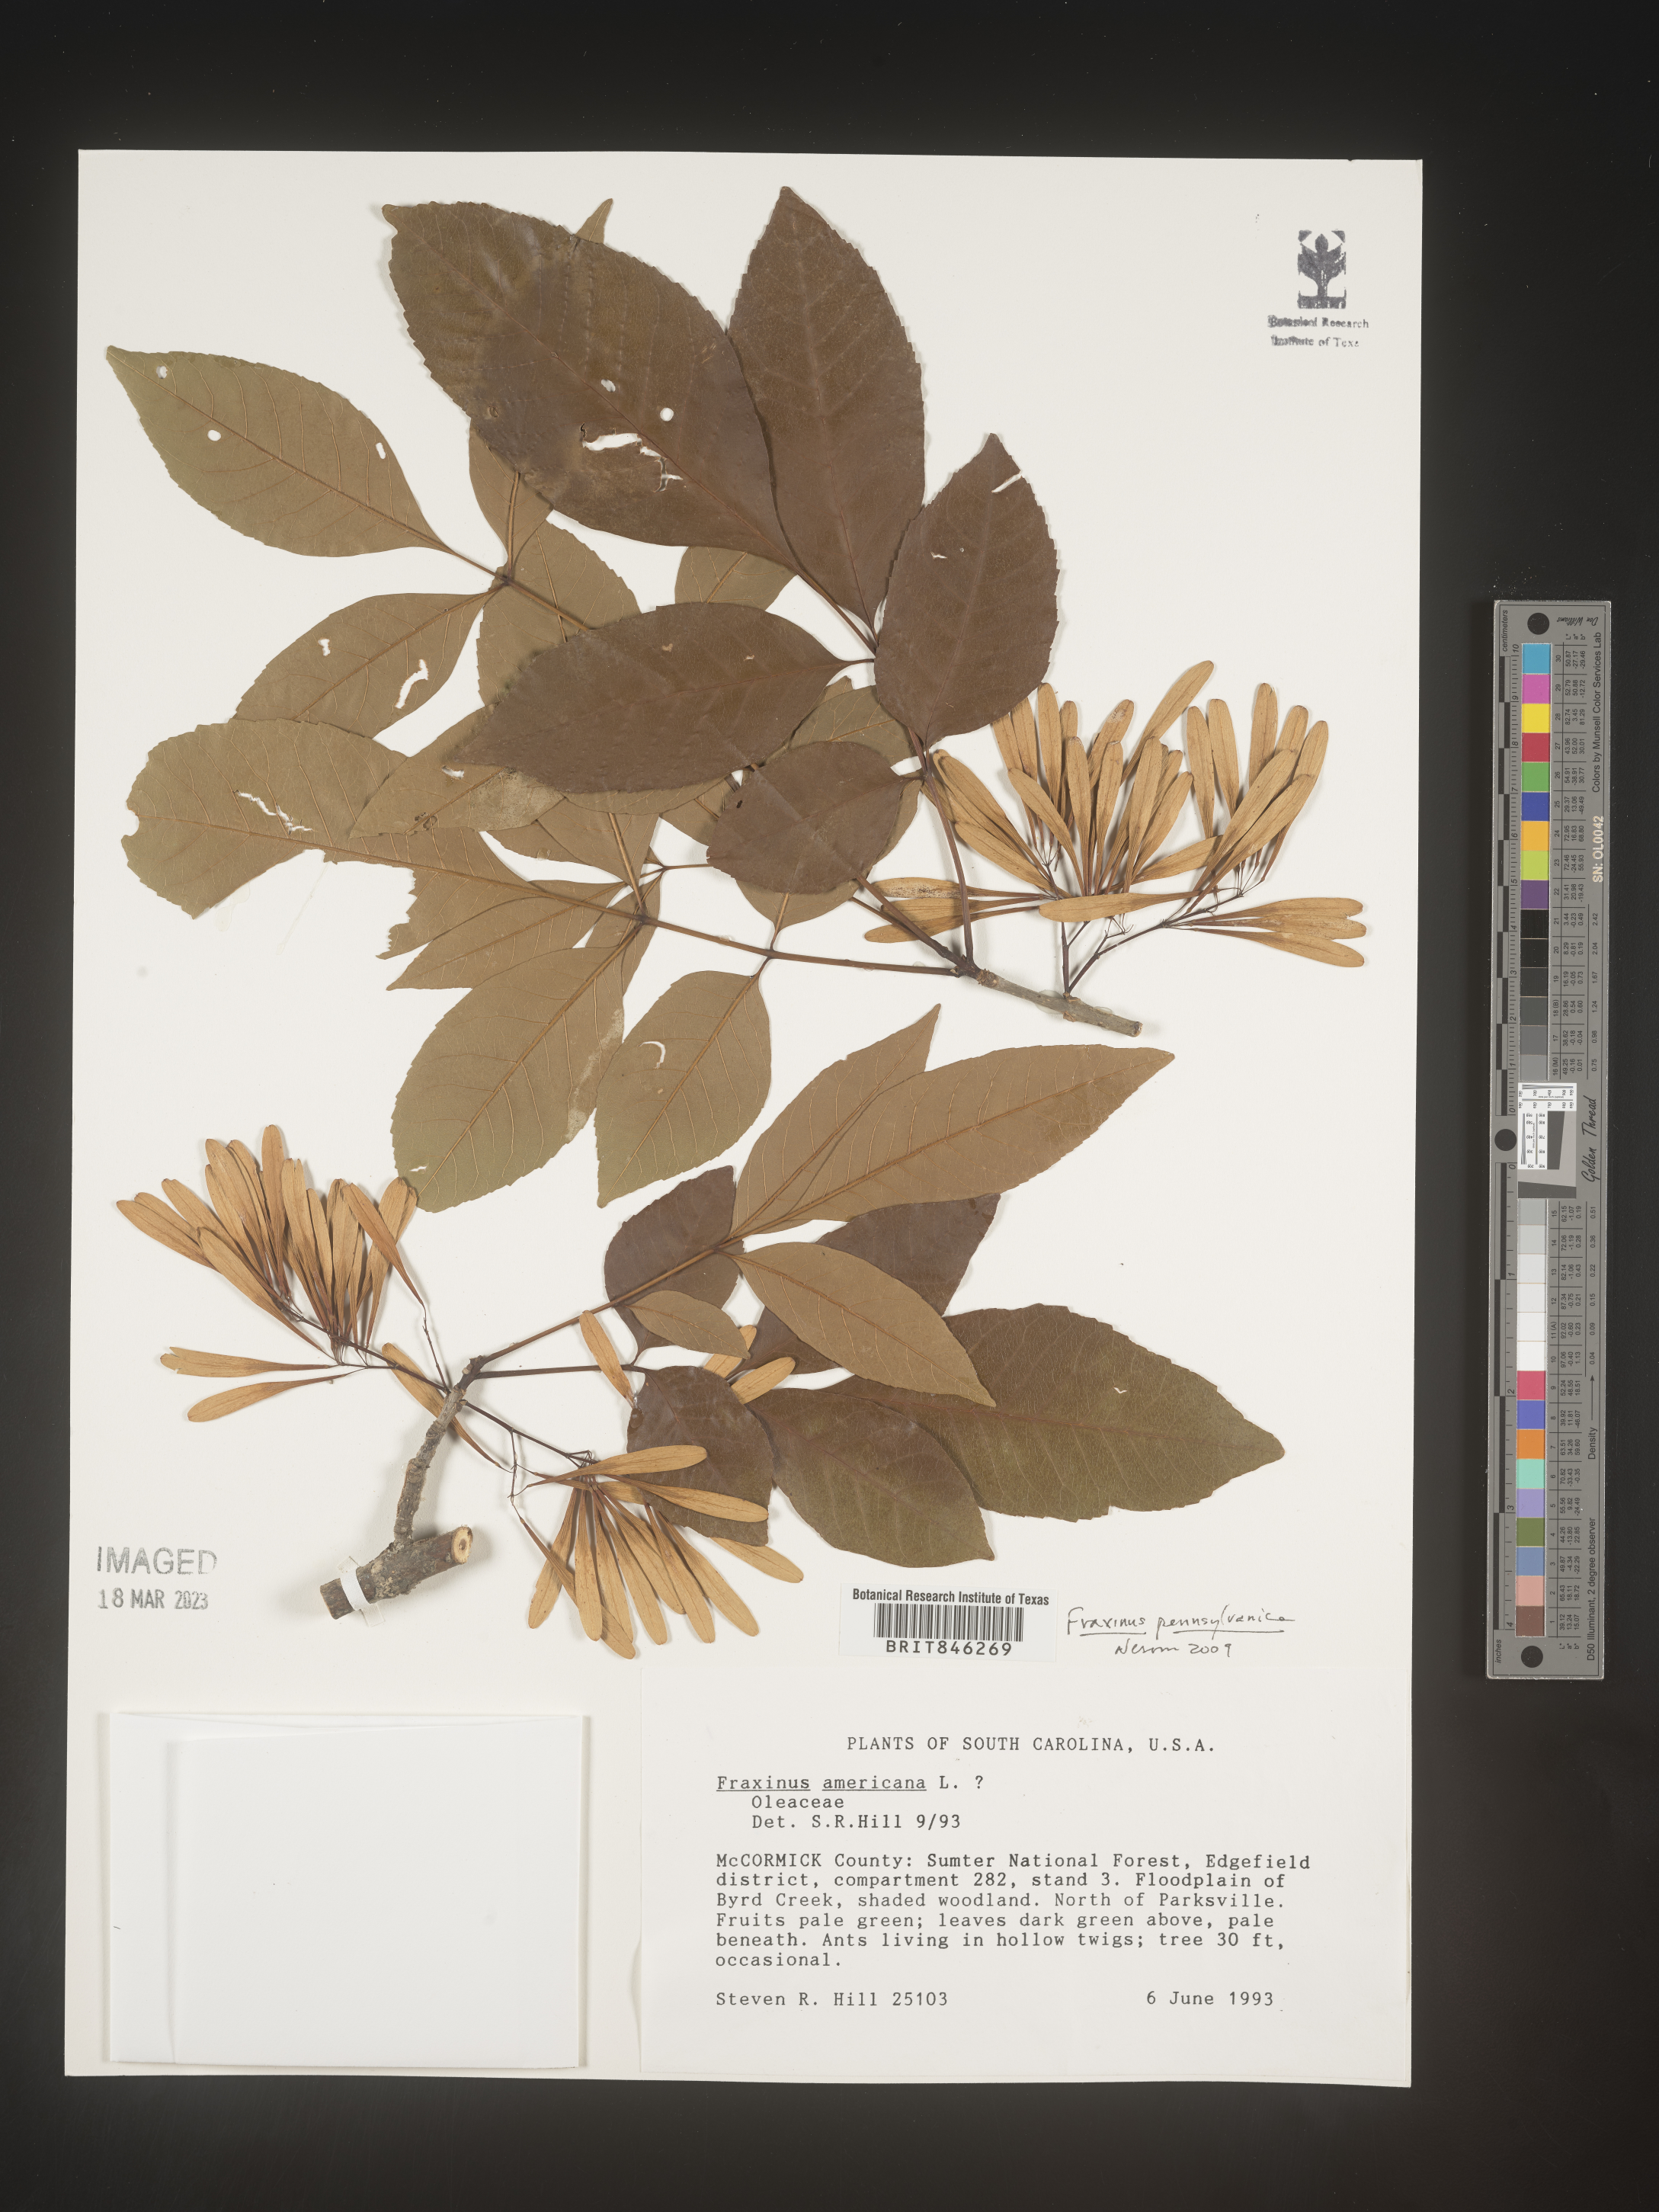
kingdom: Plantae
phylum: Tracheophyta
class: Magnoliopsida
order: Lamiales
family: Oleaceae
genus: Fraxinus
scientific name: Fraxinus pennsylvanica
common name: Green ash
